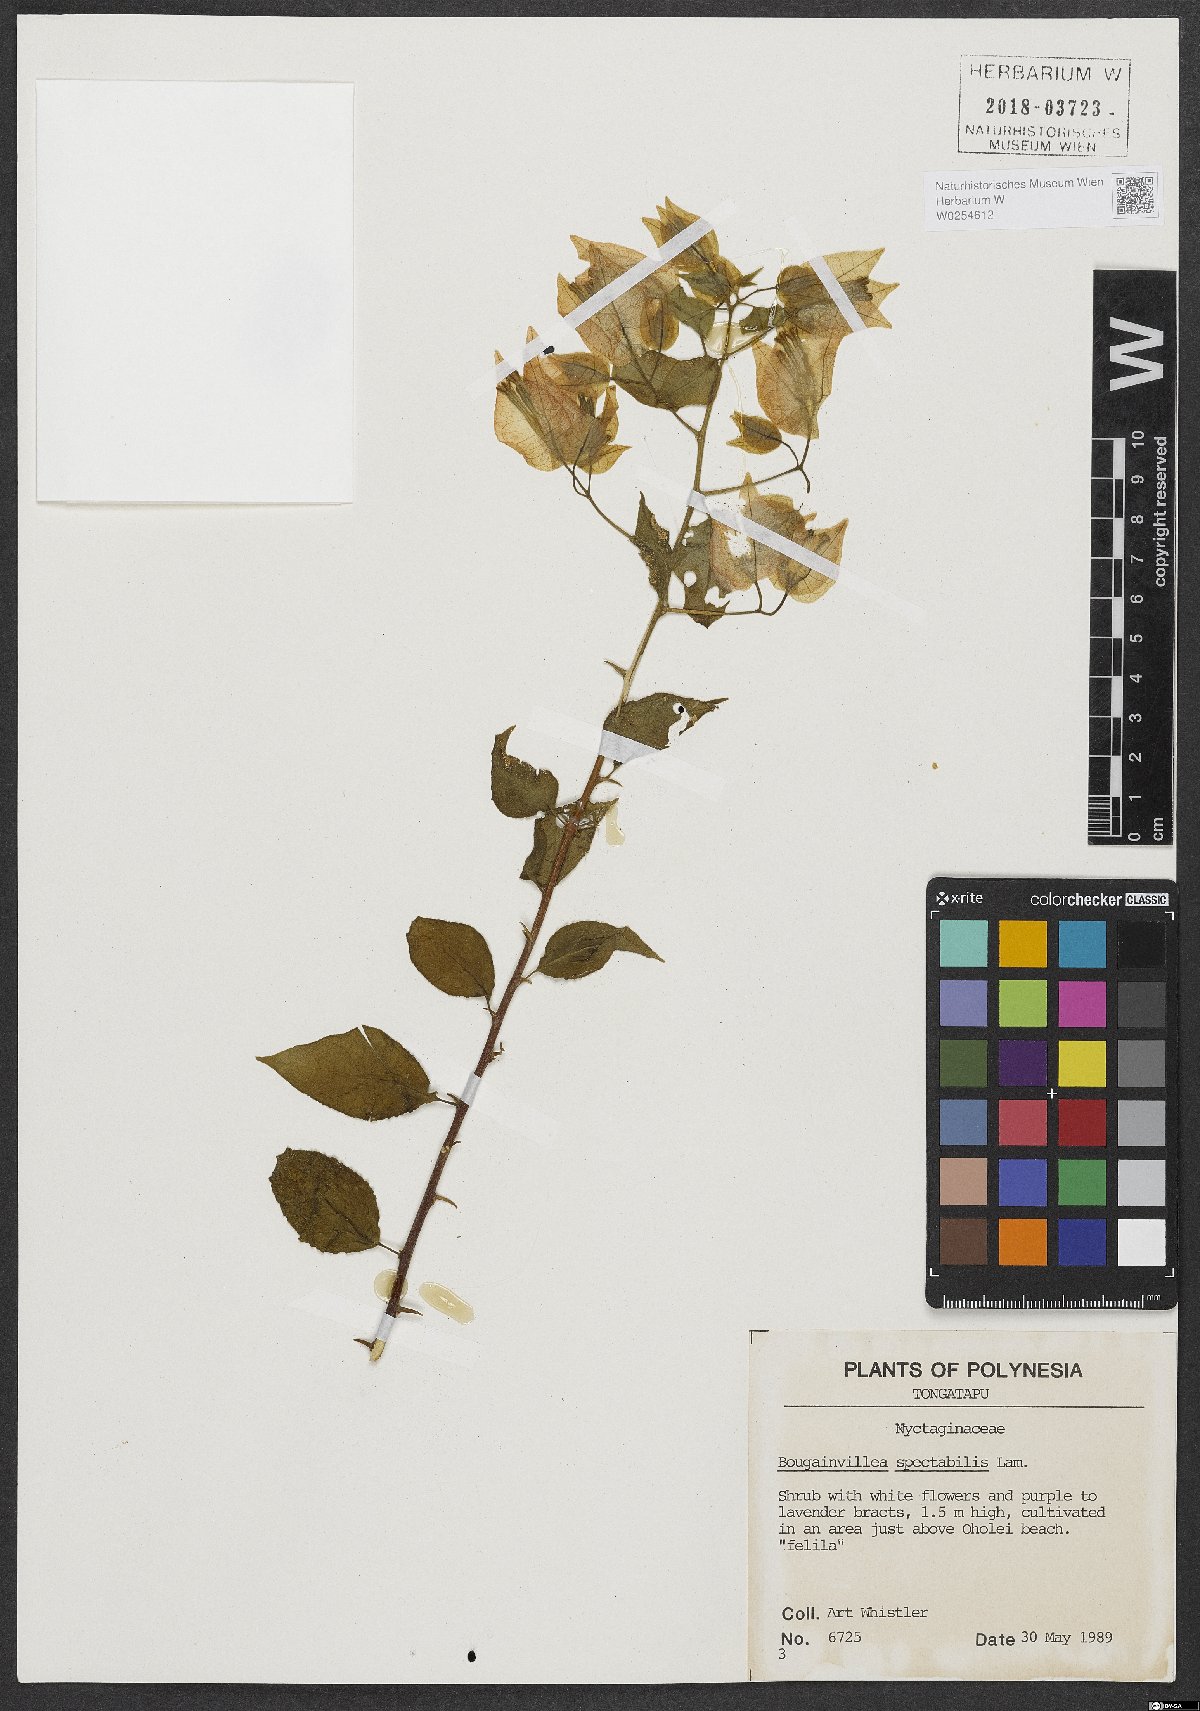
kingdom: Plantae
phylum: Tracheophyta
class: Magnoliopsida
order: Caryophyllales
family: Nyctaginaceae
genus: Bougainvillea
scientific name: Bougainvillea spectabilis
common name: Great bougainvillea
